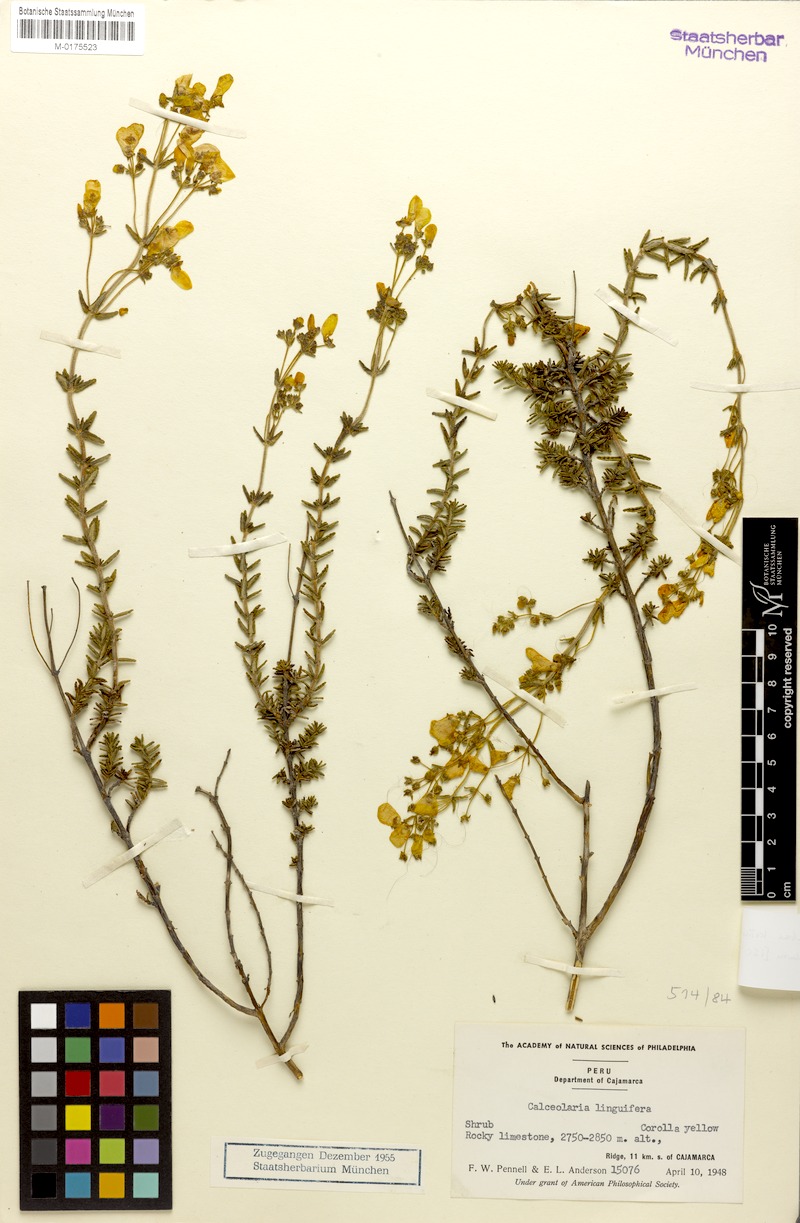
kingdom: Plantae
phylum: Tracheophyta
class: Magnoliopsida
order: Lamiales
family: Calceolariaceae
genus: Calceolaria
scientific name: Calceolaria cajabambae
